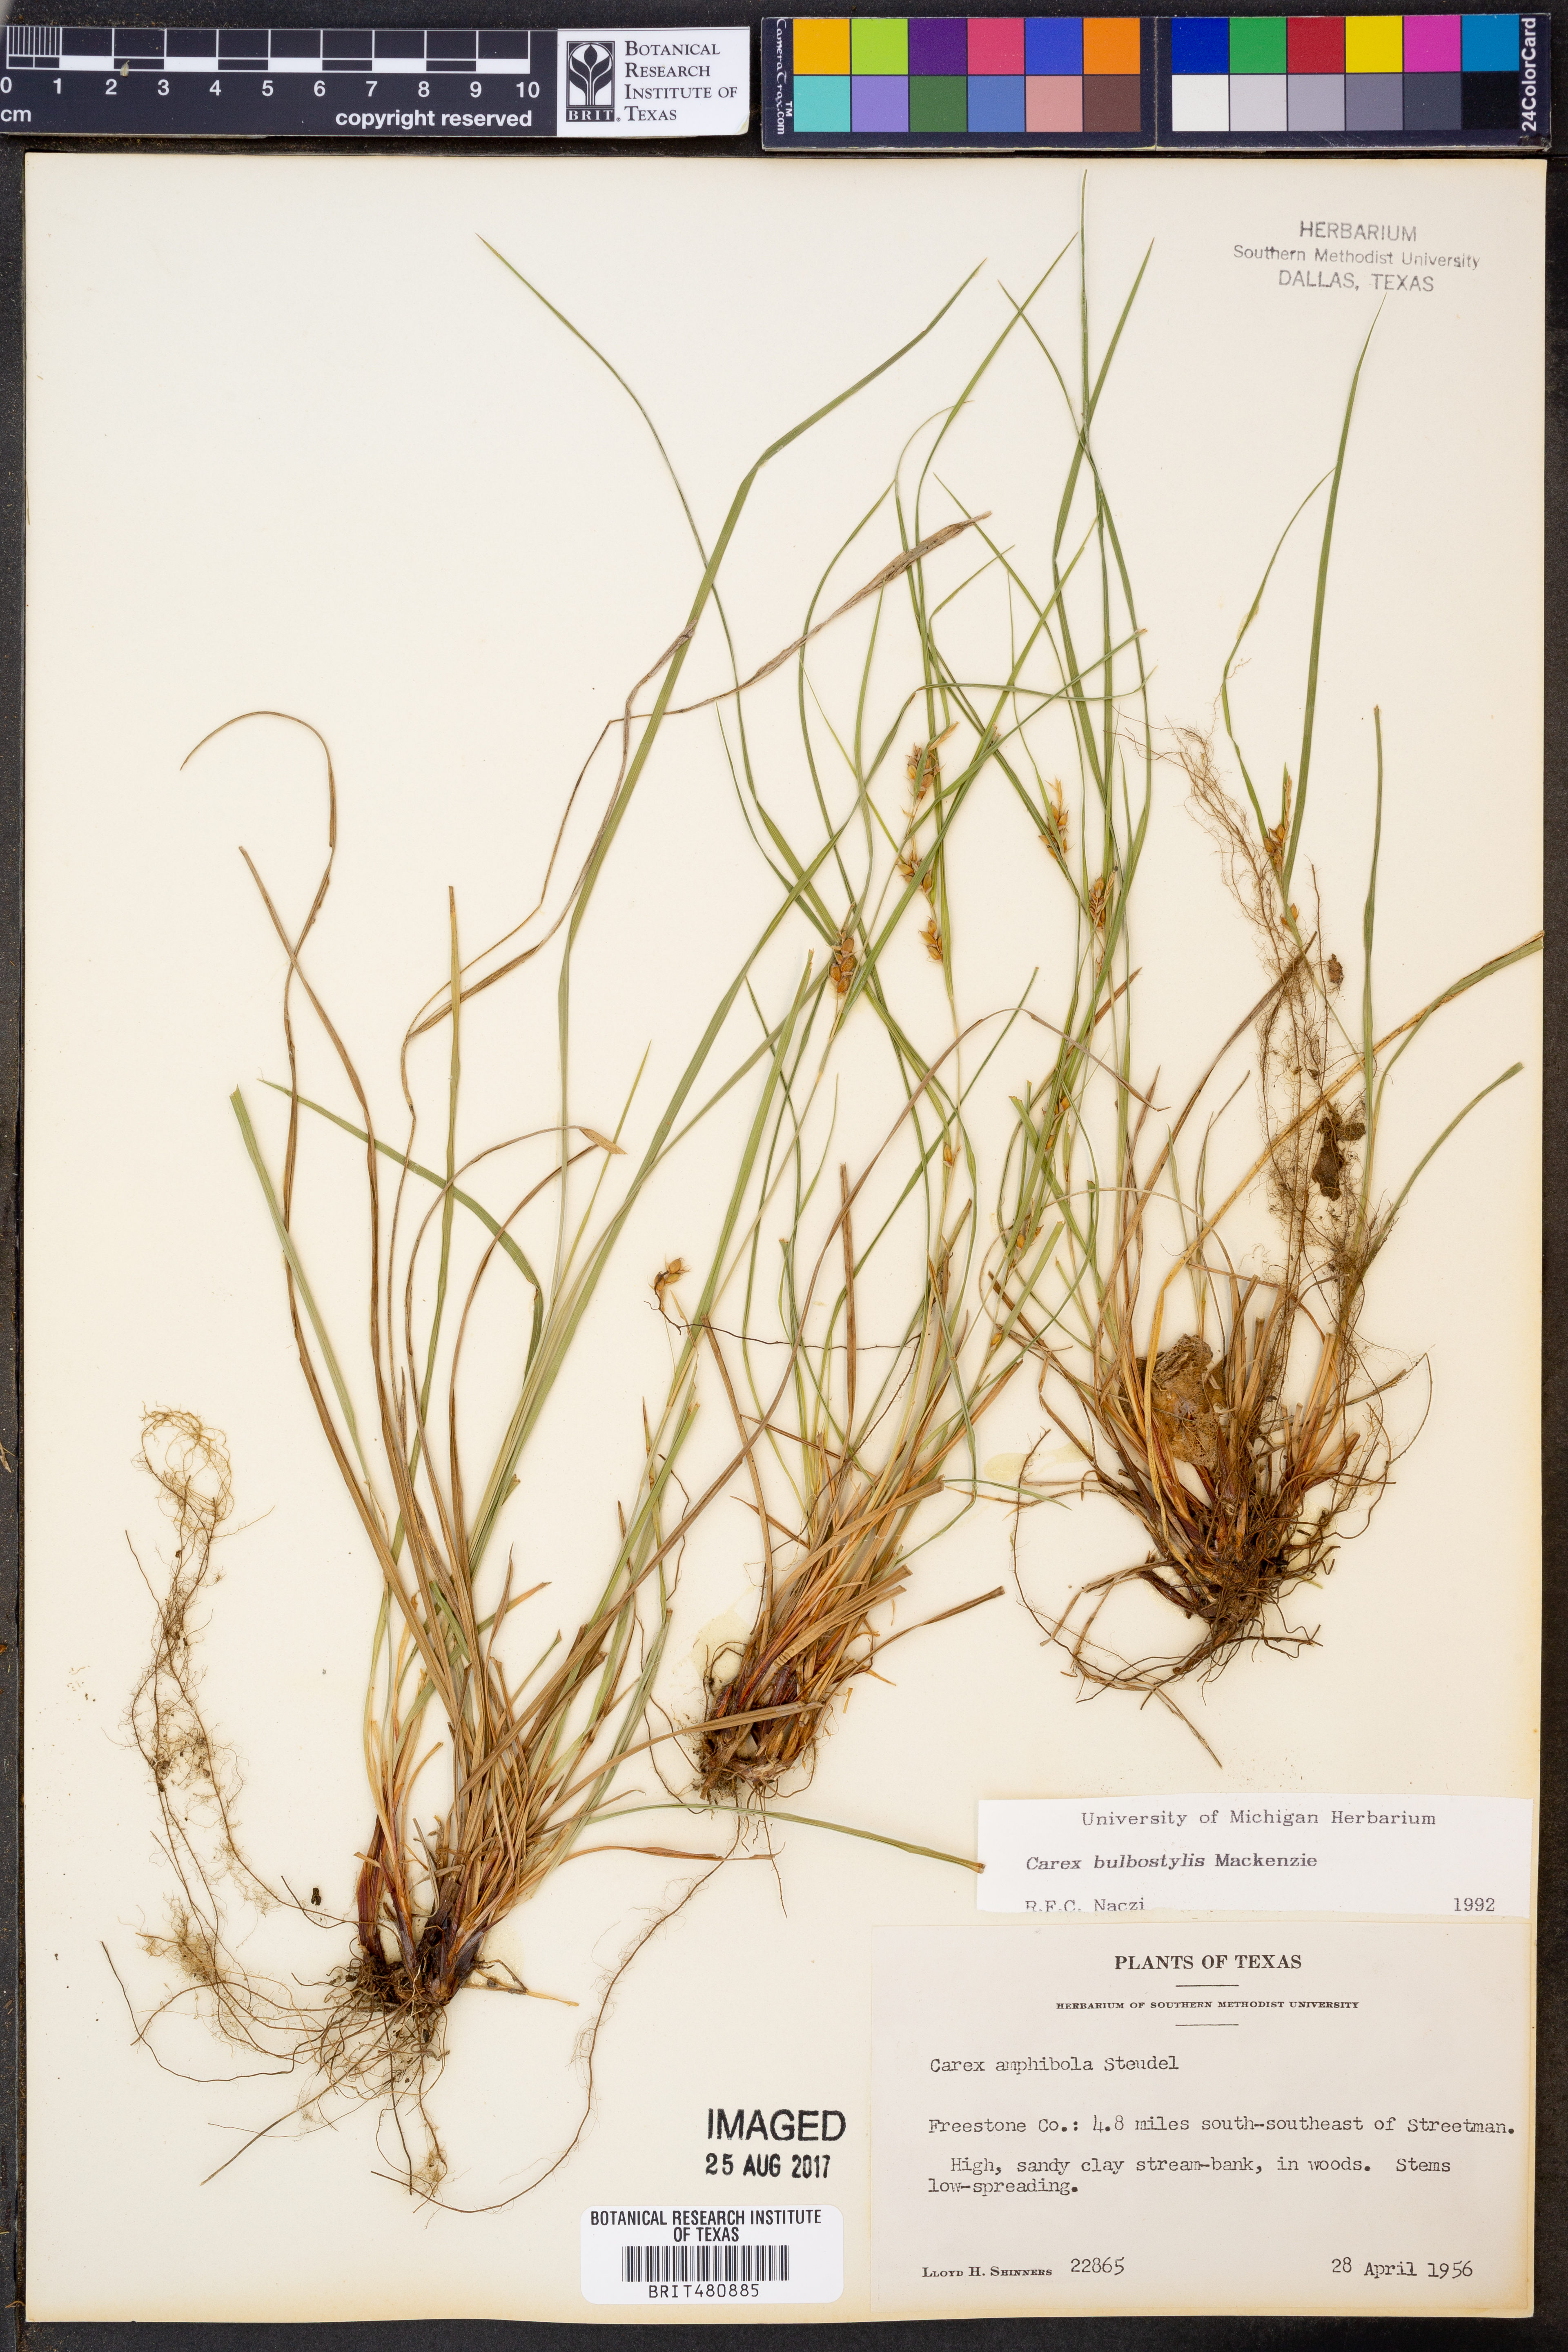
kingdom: Plantae
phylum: Tracheophyta
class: Liliopsida
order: Poales
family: Cyperaceae
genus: Carex
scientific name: Carex bulbostylis
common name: Eastern narrowleaf sedge
